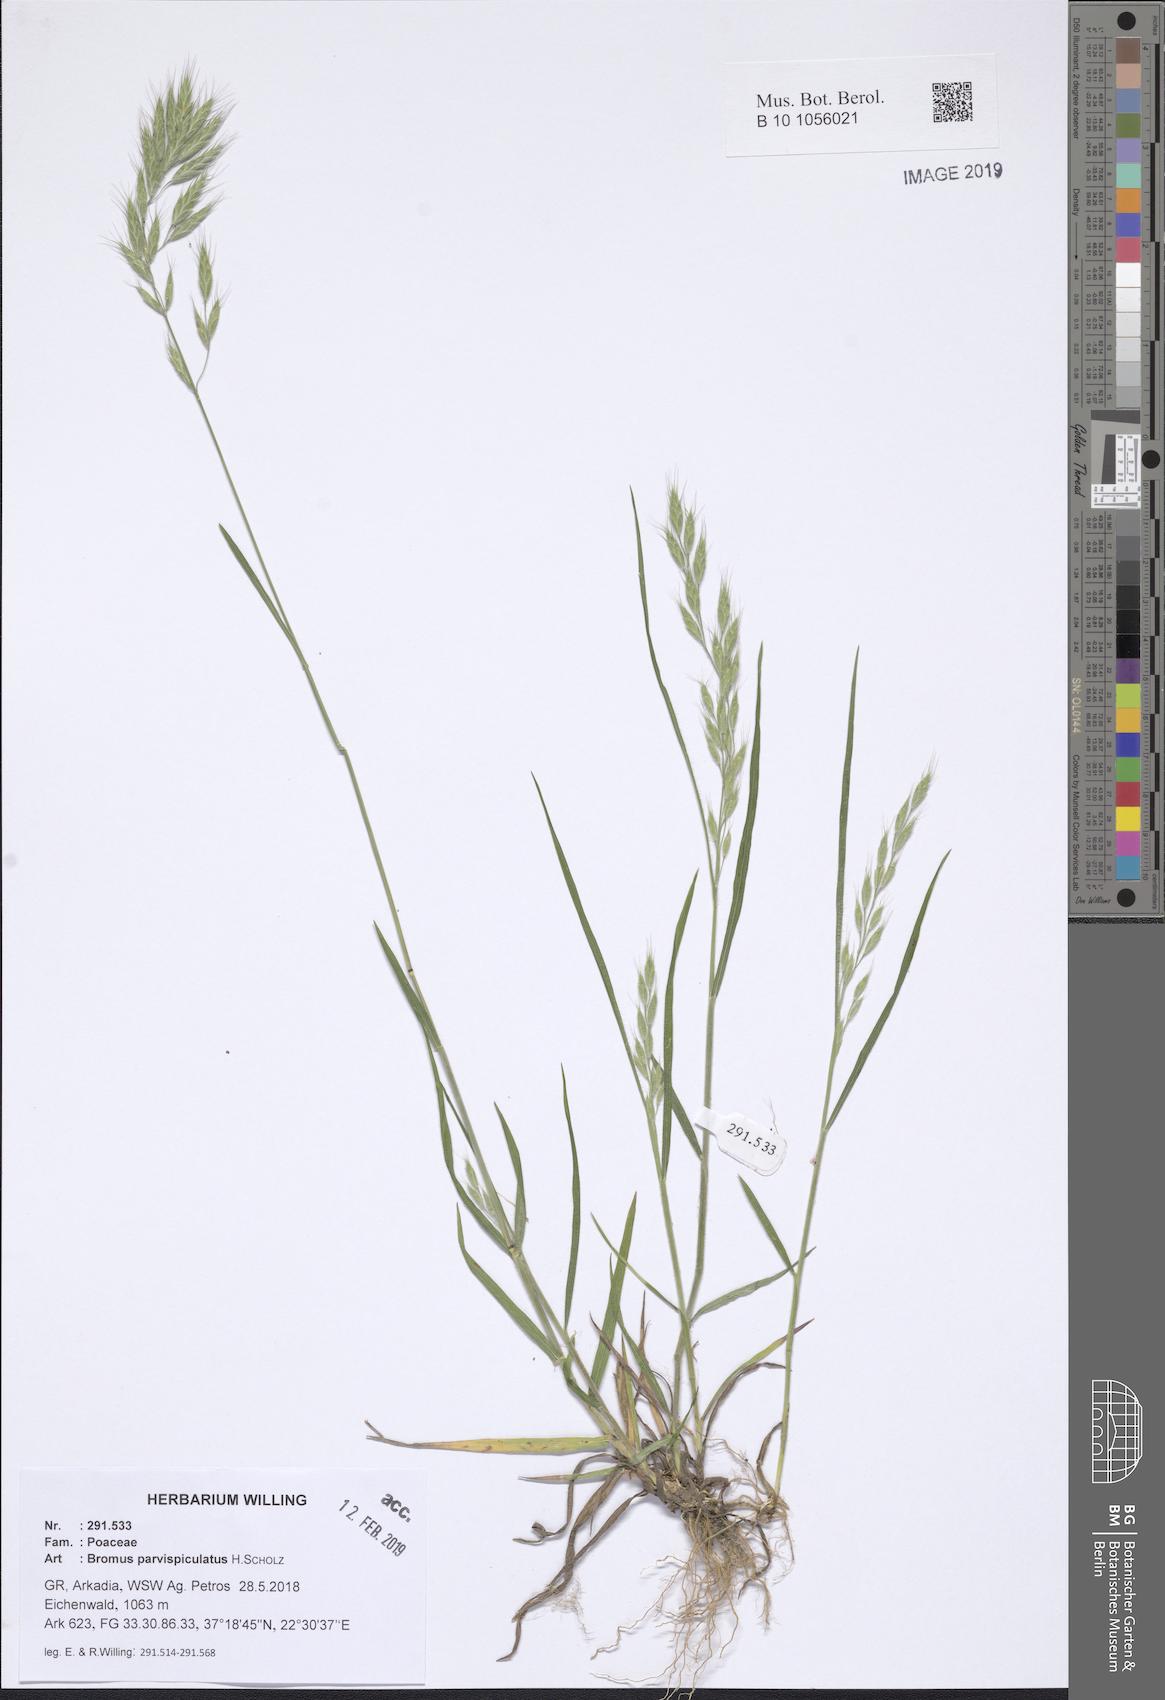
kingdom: Plantae
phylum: Tracheophyta
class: Liliopsida
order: Poales
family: Poaceae
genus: Bromus
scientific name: Bromus hordeaceus
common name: Soft brome
